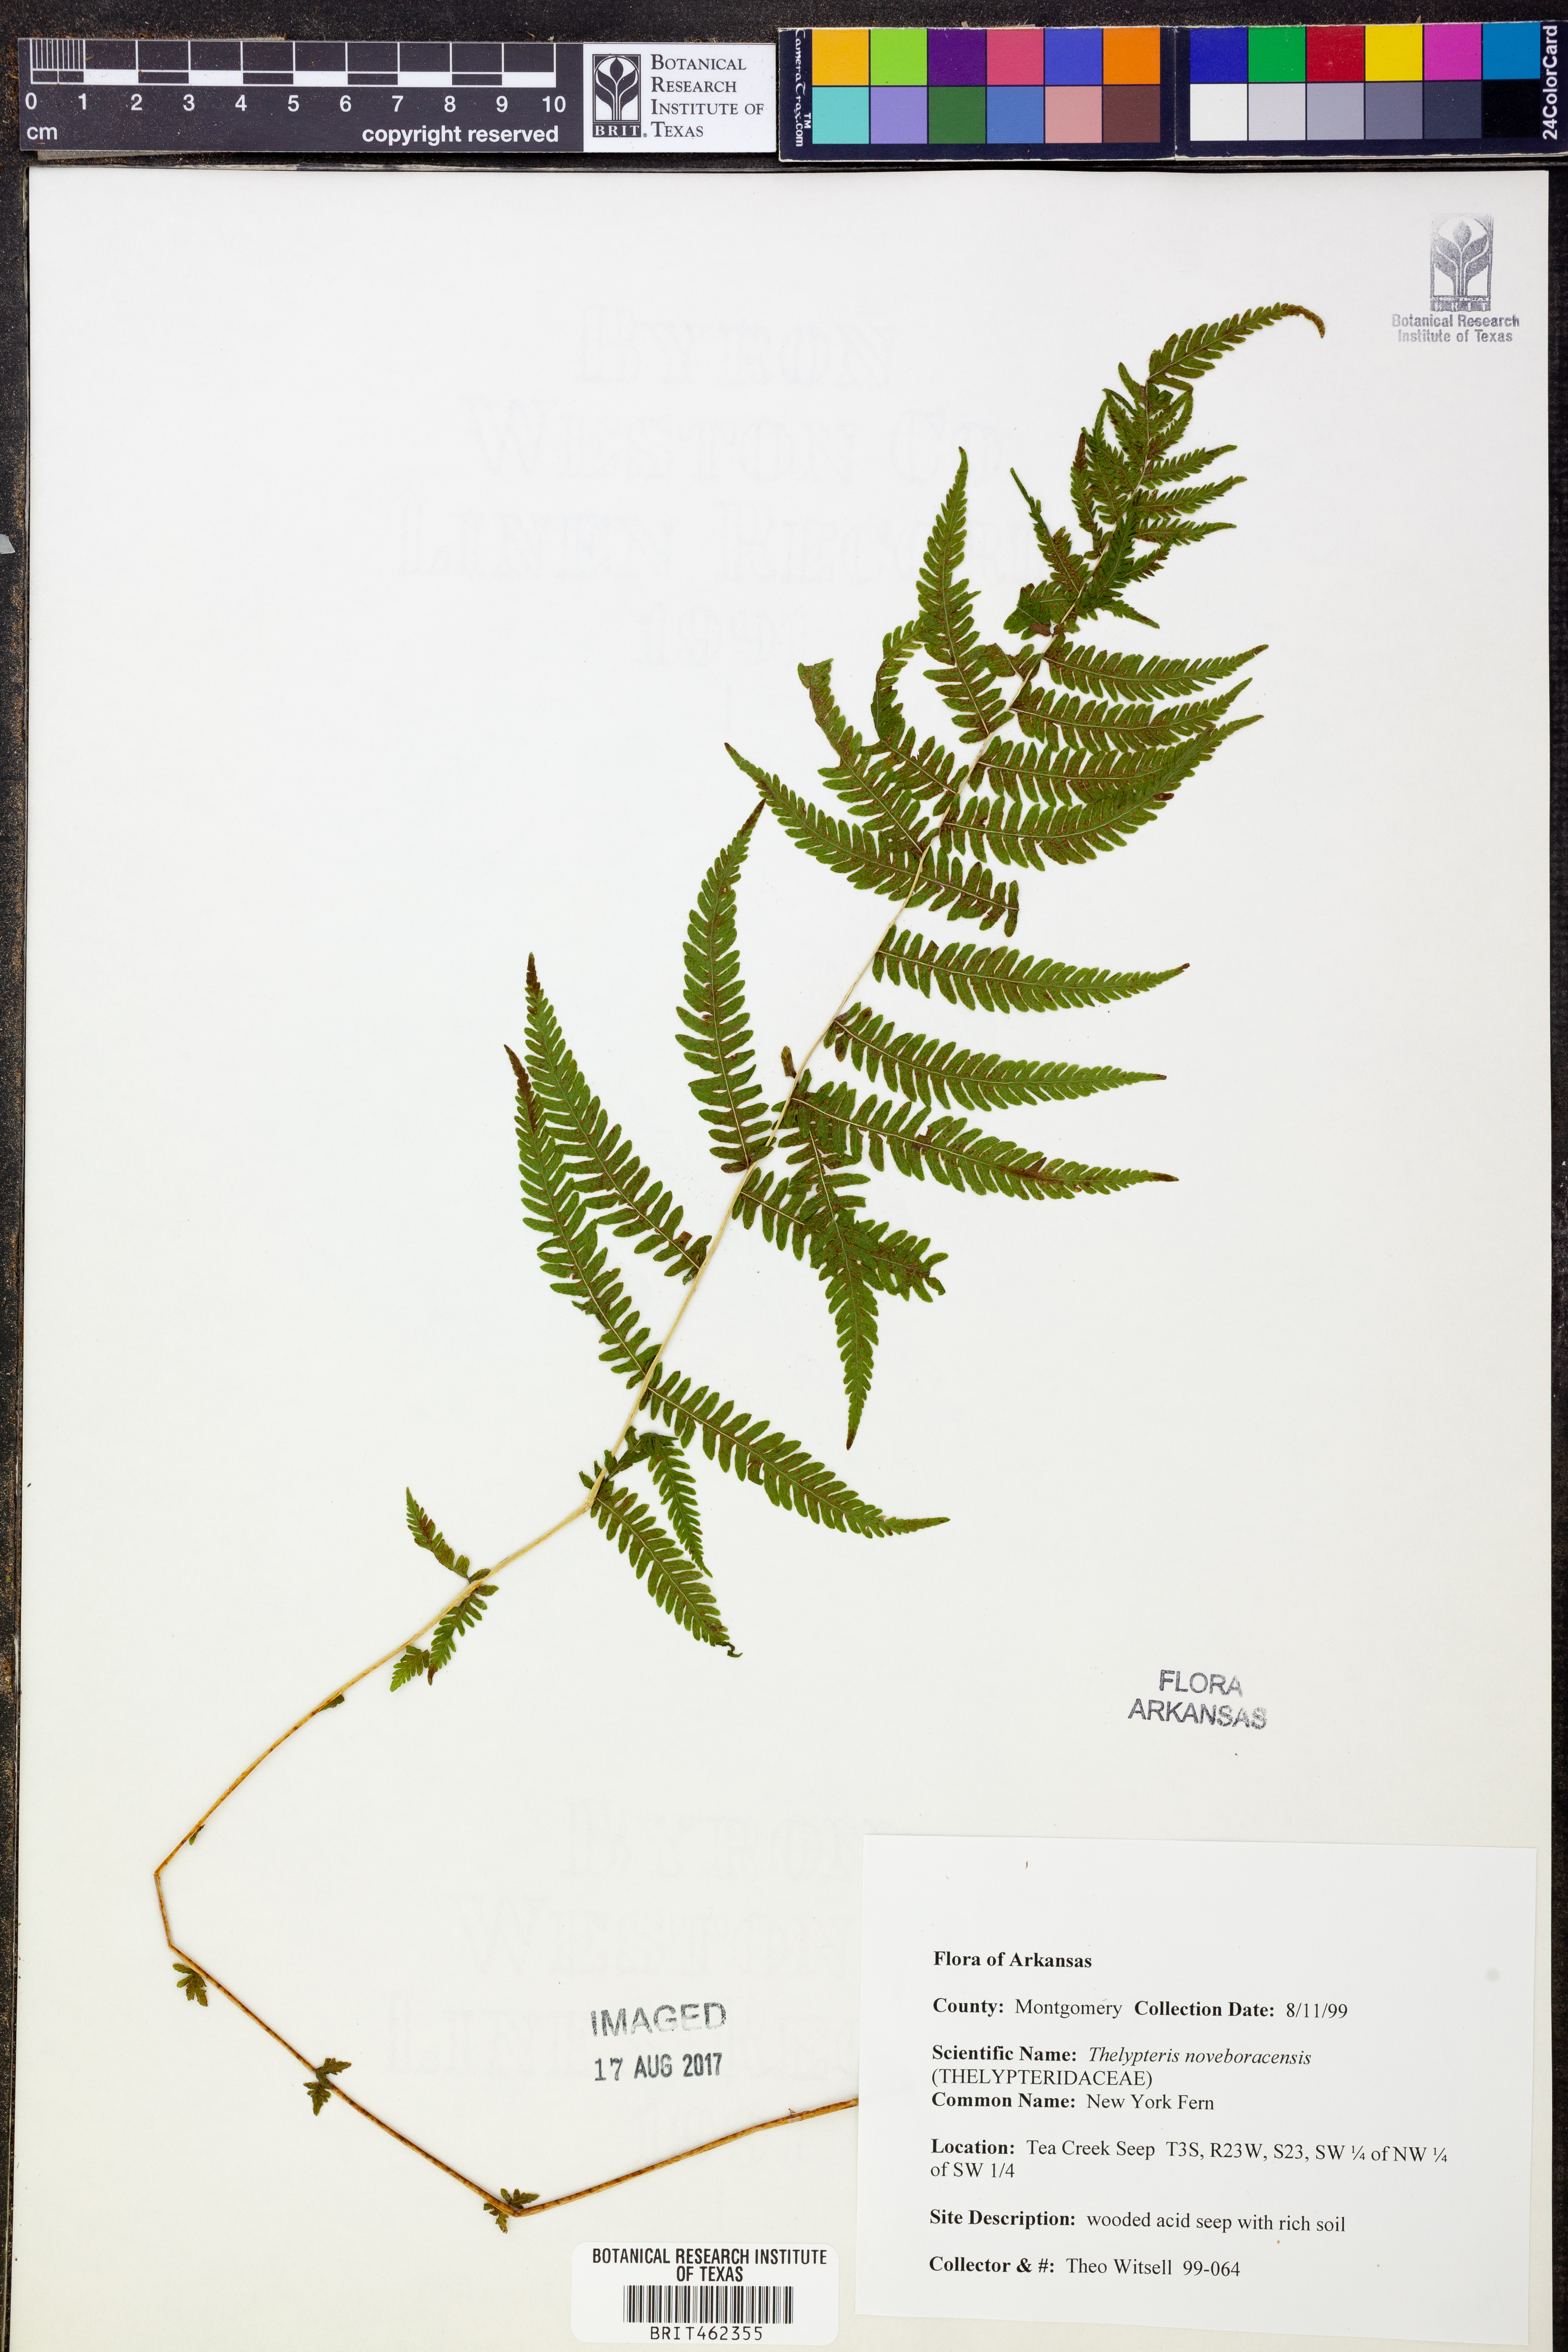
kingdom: Plantae
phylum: Tracheophyta
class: Polypodiopsida
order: Polypodiales
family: Thelypteridaceae
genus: Amauropelta
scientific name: Amauropelta noveboracensis
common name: New york fern
